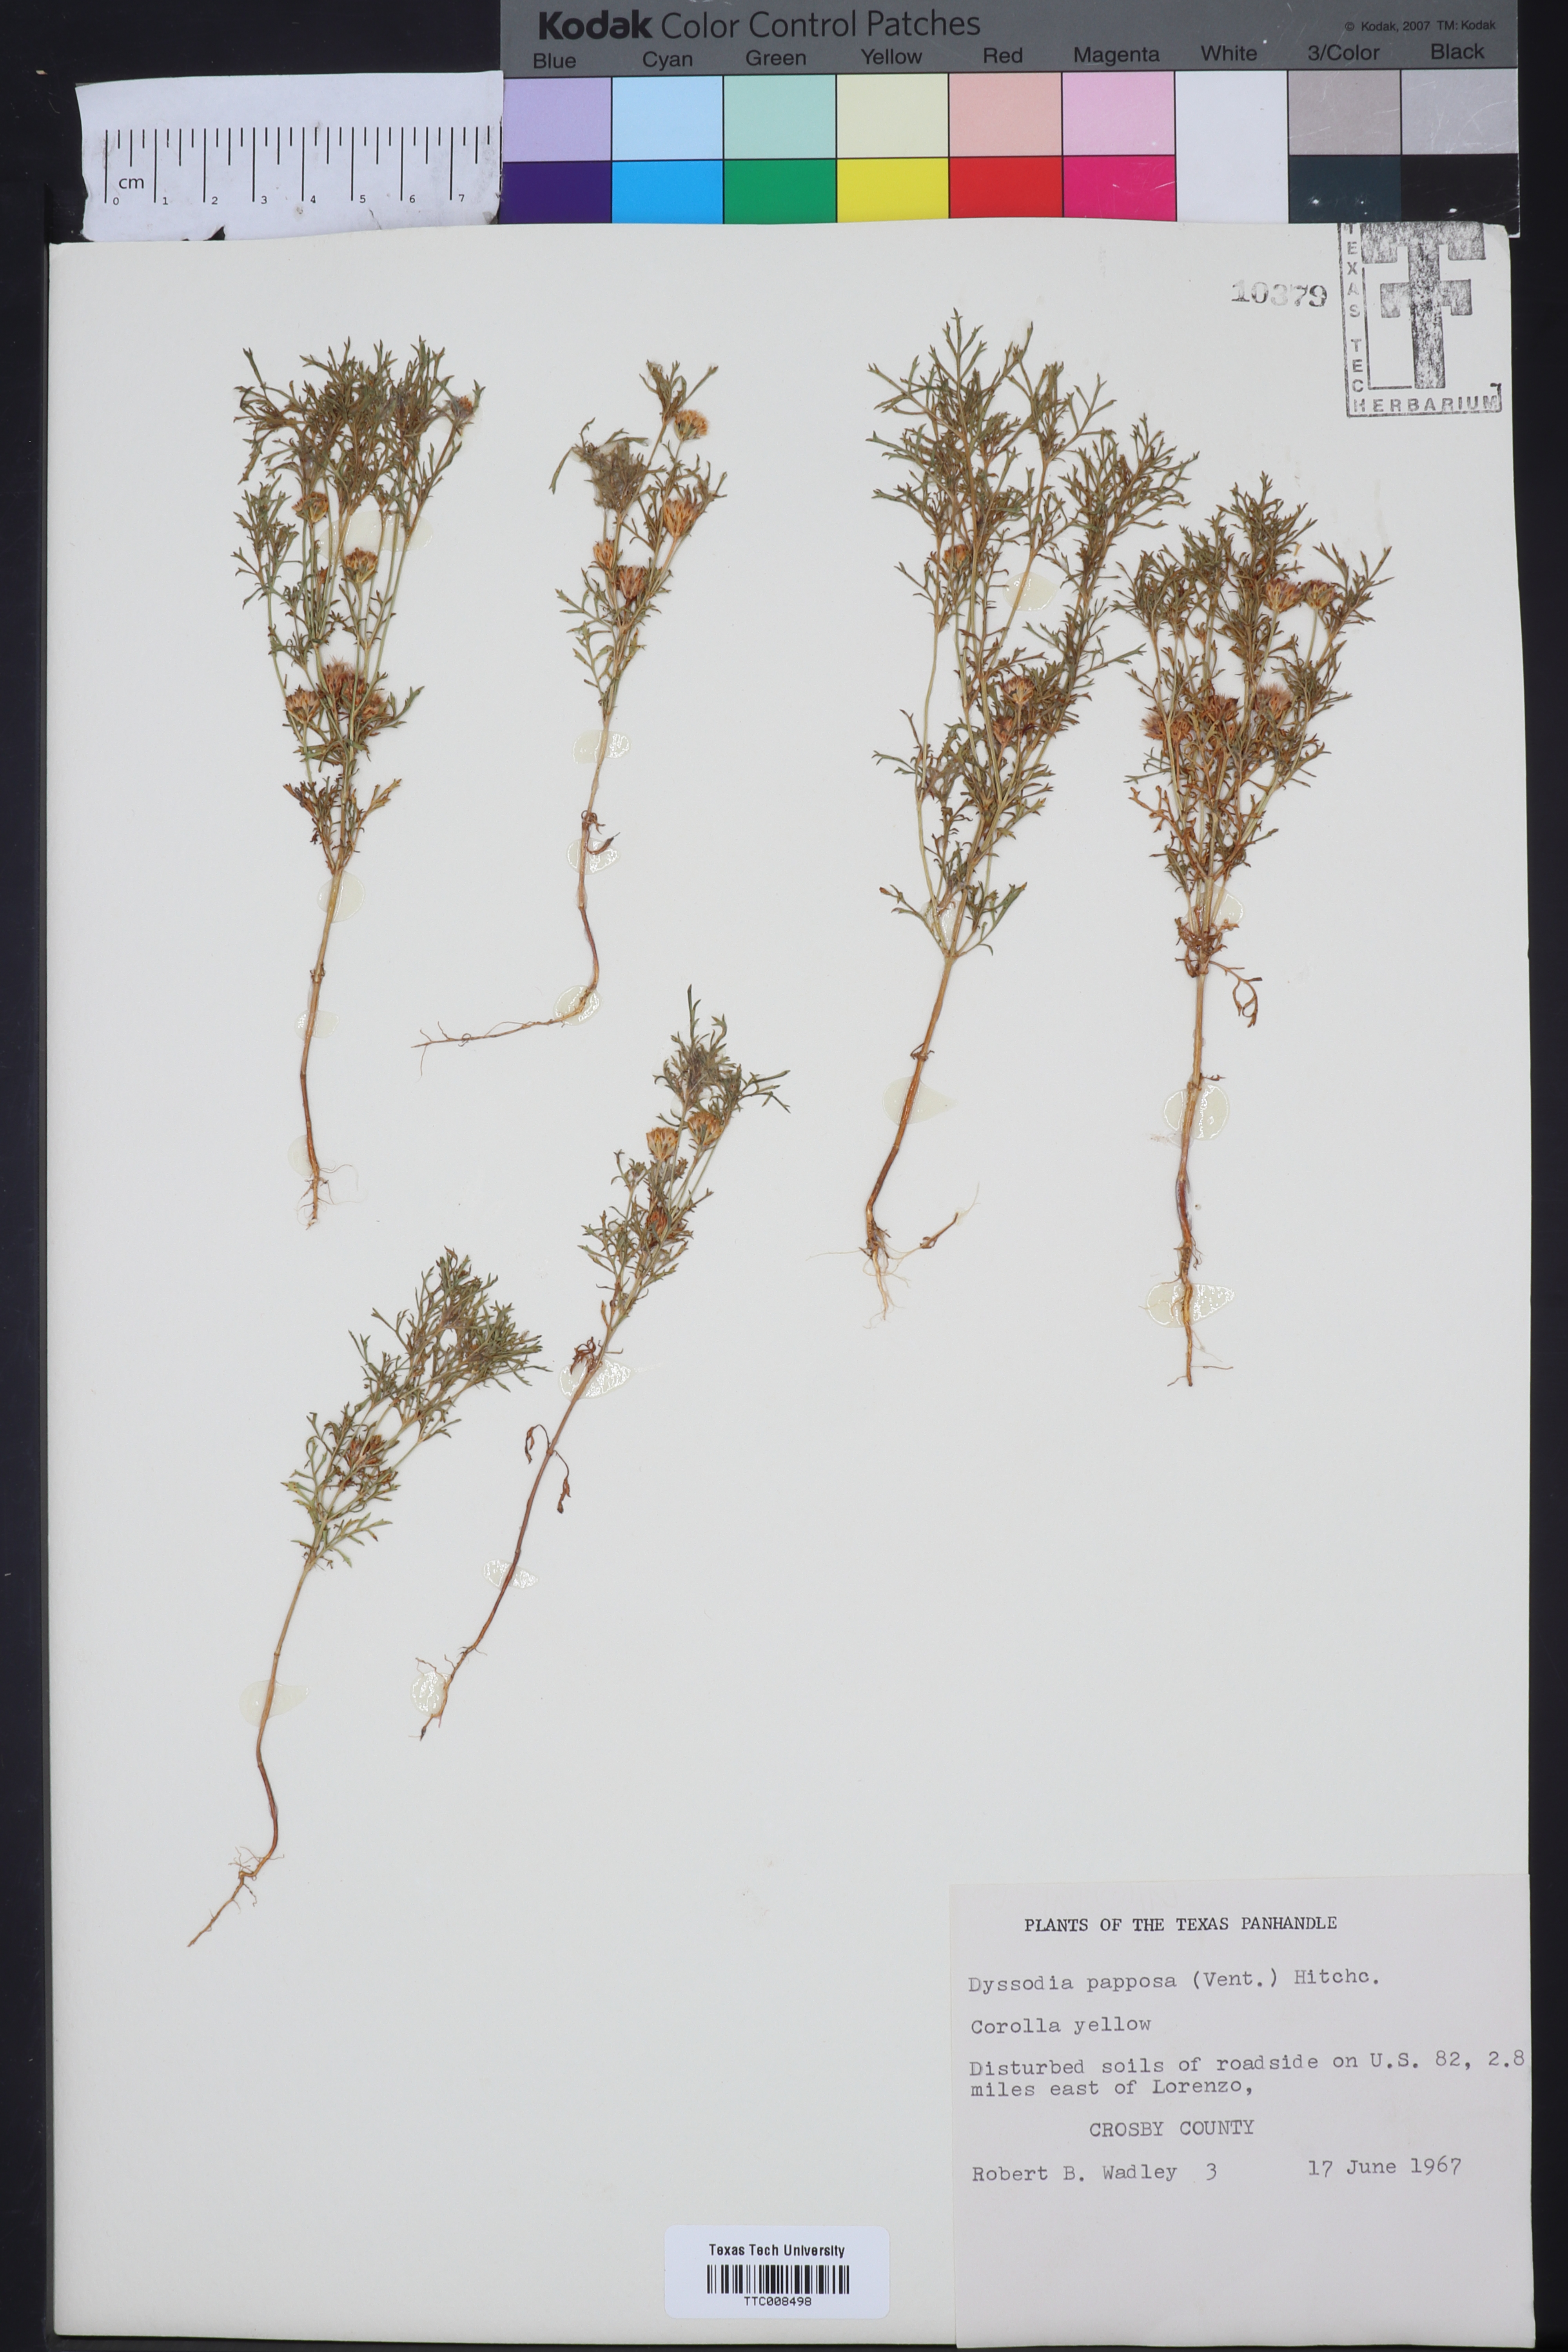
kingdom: Plantae
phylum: Tracheophyta
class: Magnoliopsida
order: Asterales
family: Asteraceae
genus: Dyssodia
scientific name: Dyssodia papposa
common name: Dogweed
